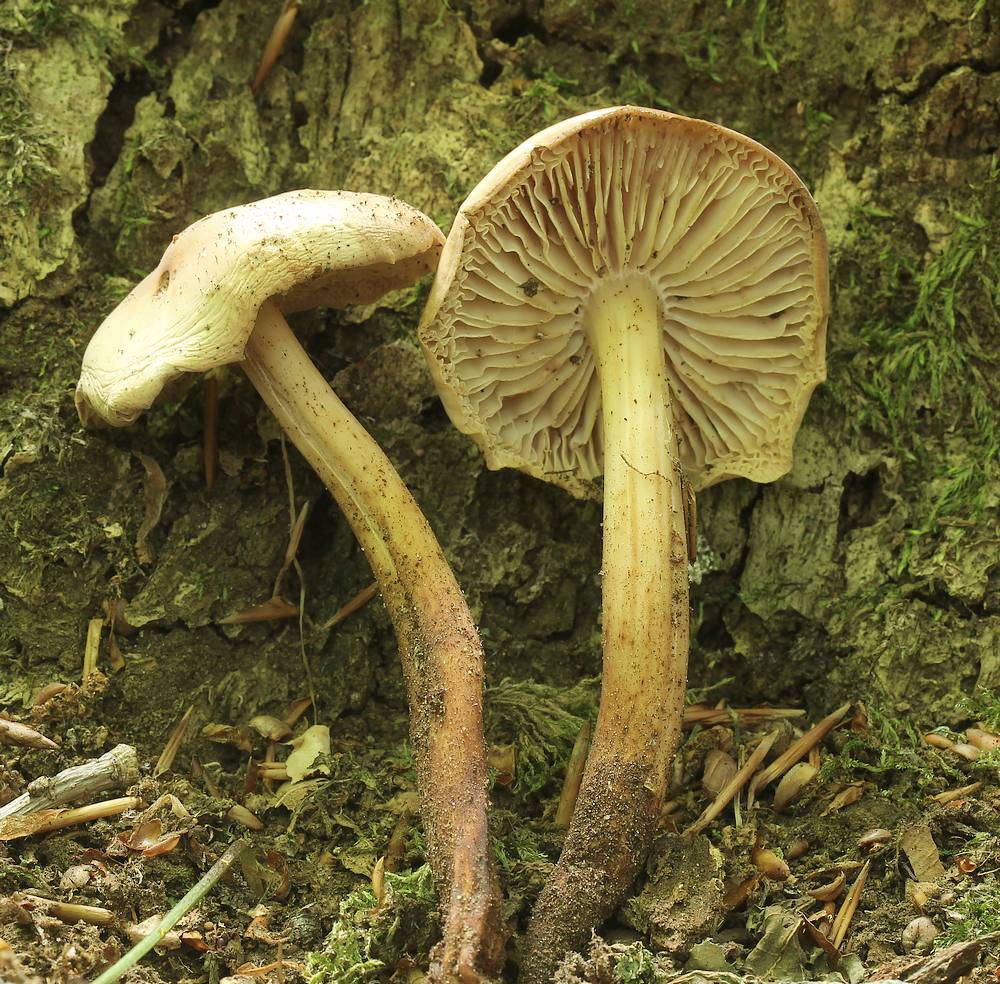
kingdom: Fungi
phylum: Basidiomycota
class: Agaricomycetes
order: Agaricales
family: Omphalotaceae
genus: Gymnopus
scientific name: Gymnopus fusipes
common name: tenstokket fladhat
